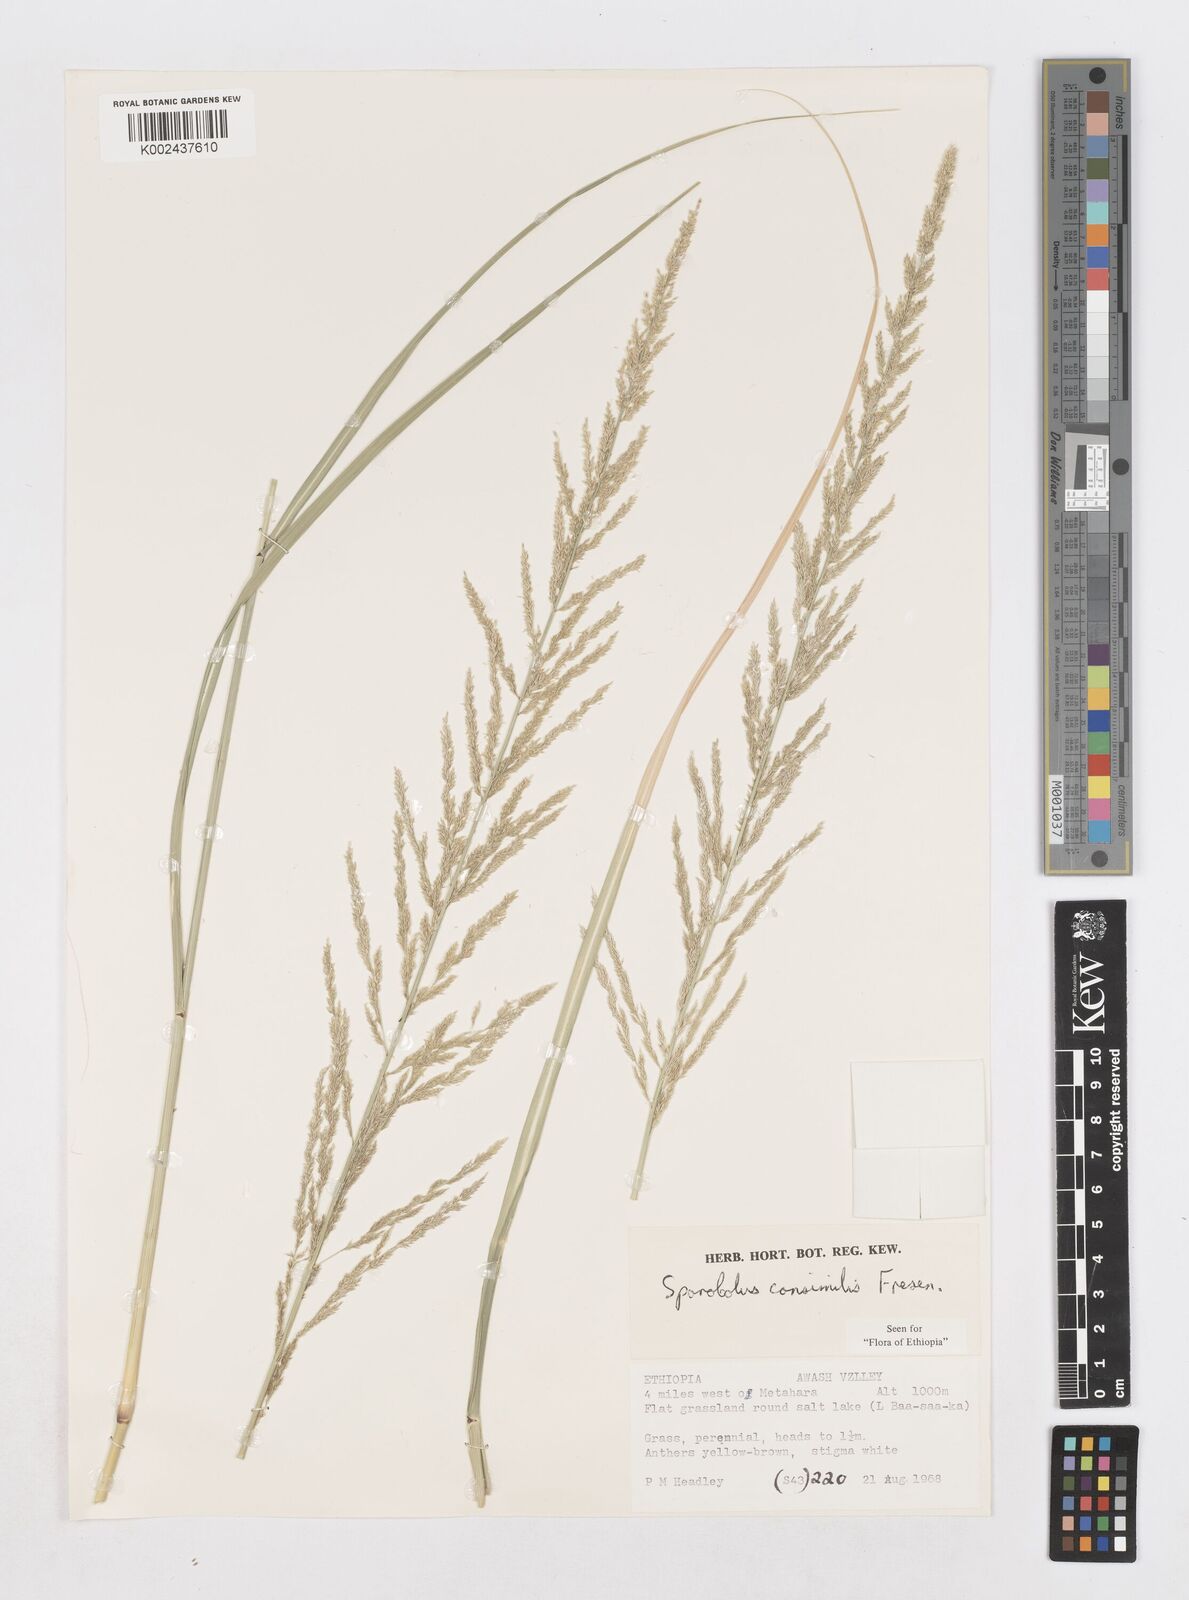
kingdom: Plantae
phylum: Tracheophyta
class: Liliopsida
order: Poales
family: Poaceae
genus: Sporobolus
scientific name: Sporobolus consimilis
